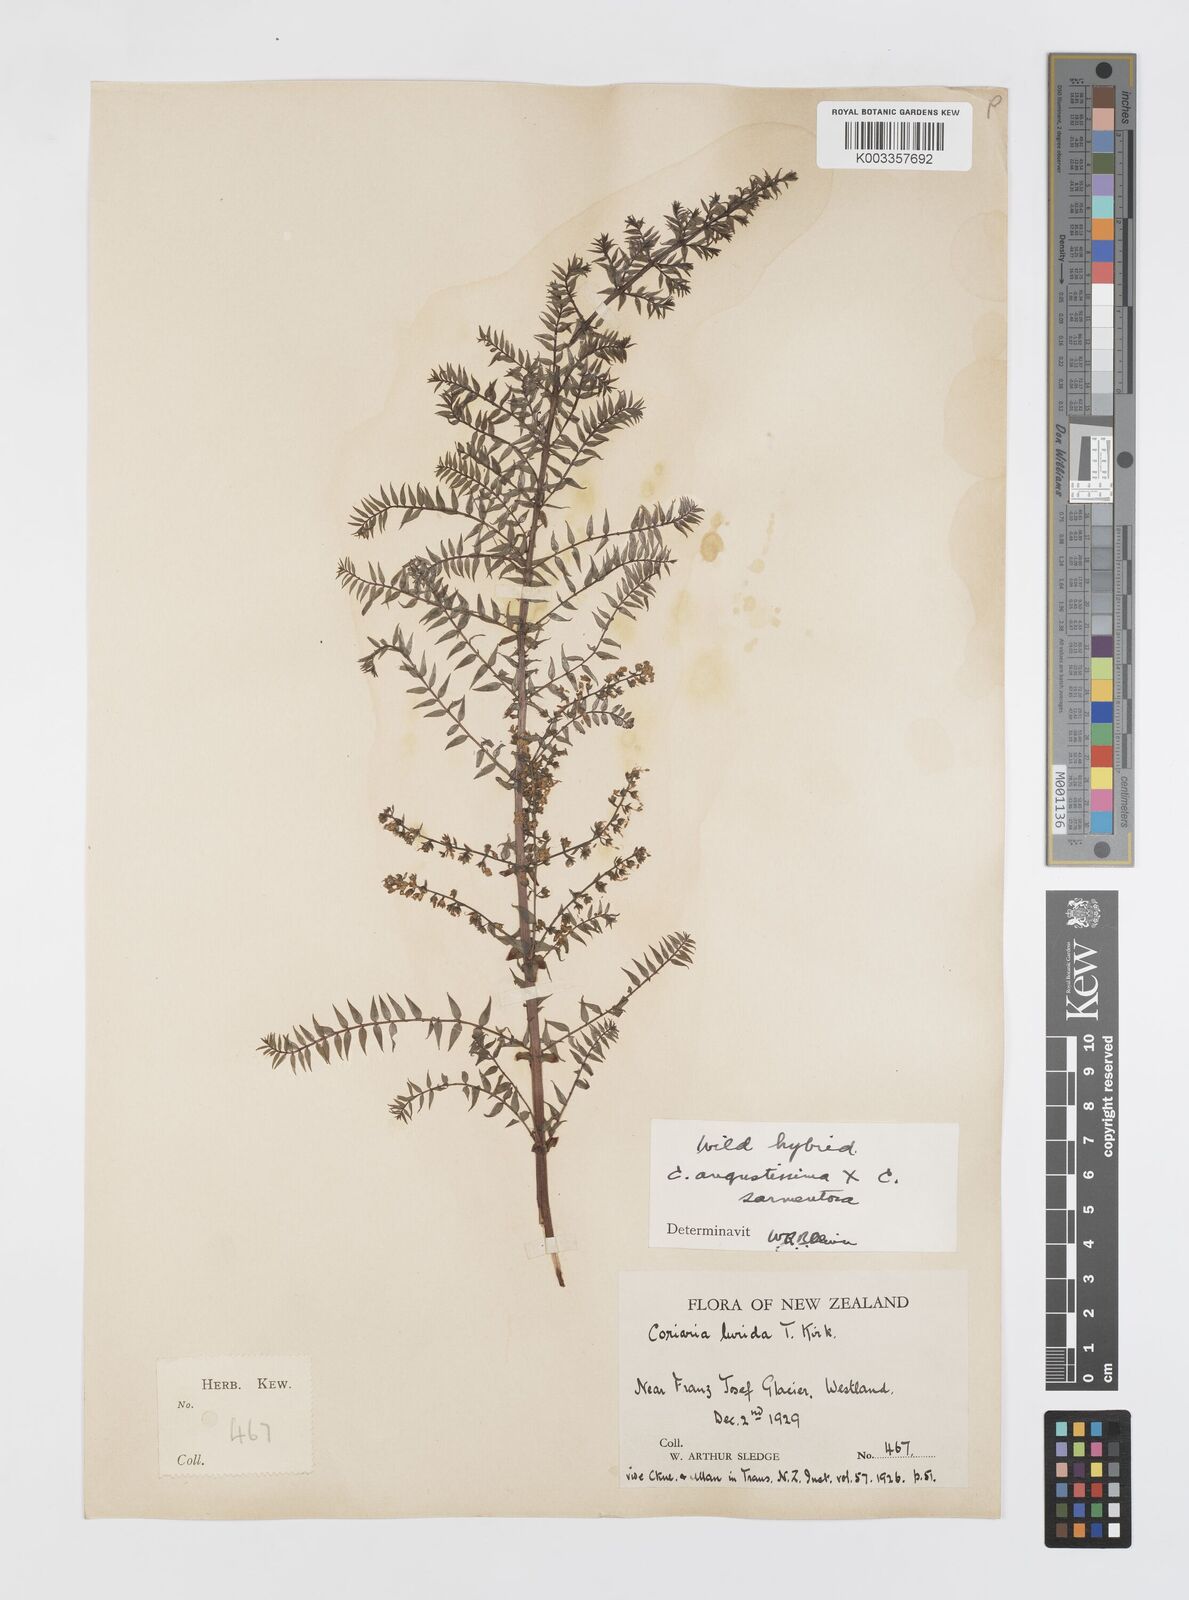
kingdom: Plantae
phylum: Tracheophyta
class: Magnoliopsida
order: Cucurbitales
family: Coriariaceae
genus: Coriaria
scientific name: Coriaria lurida
